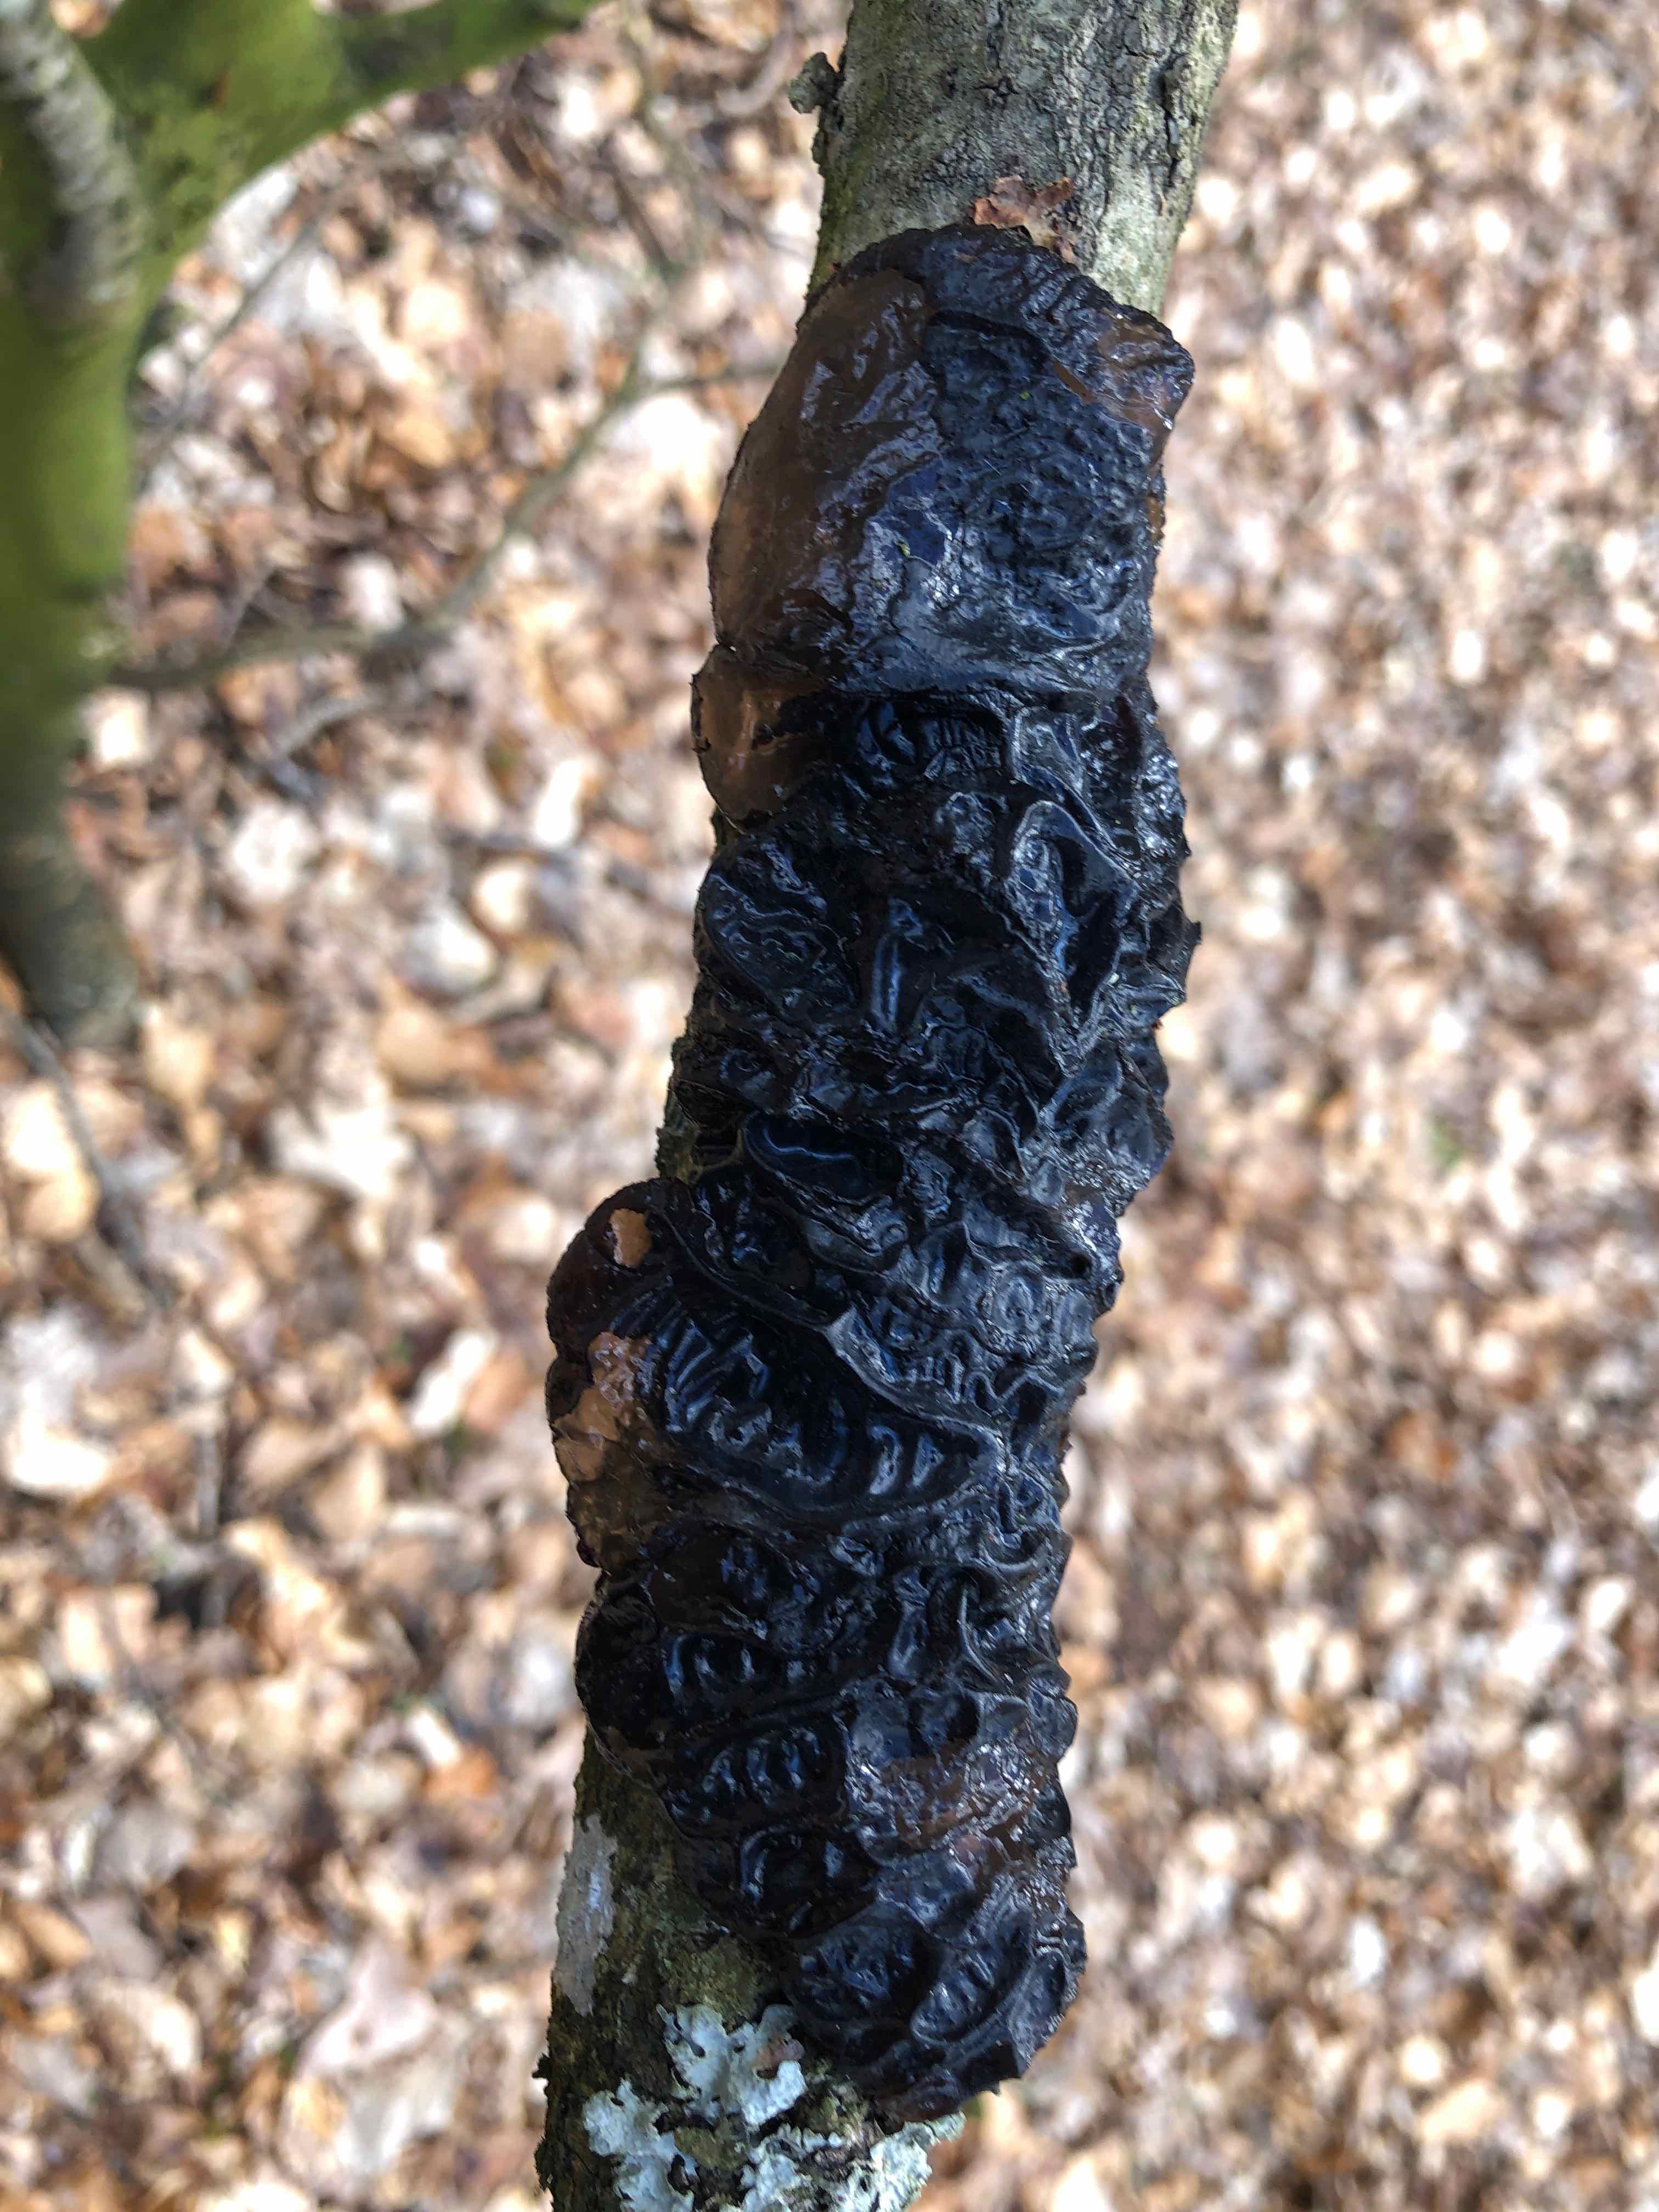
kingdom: Fungi
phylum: Basidiomycota
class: Agaricomycetes
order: Auriculariales
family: Auriculariaceae
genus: Exidia
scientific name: Exidia glandulosa
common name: ege-bævretop
